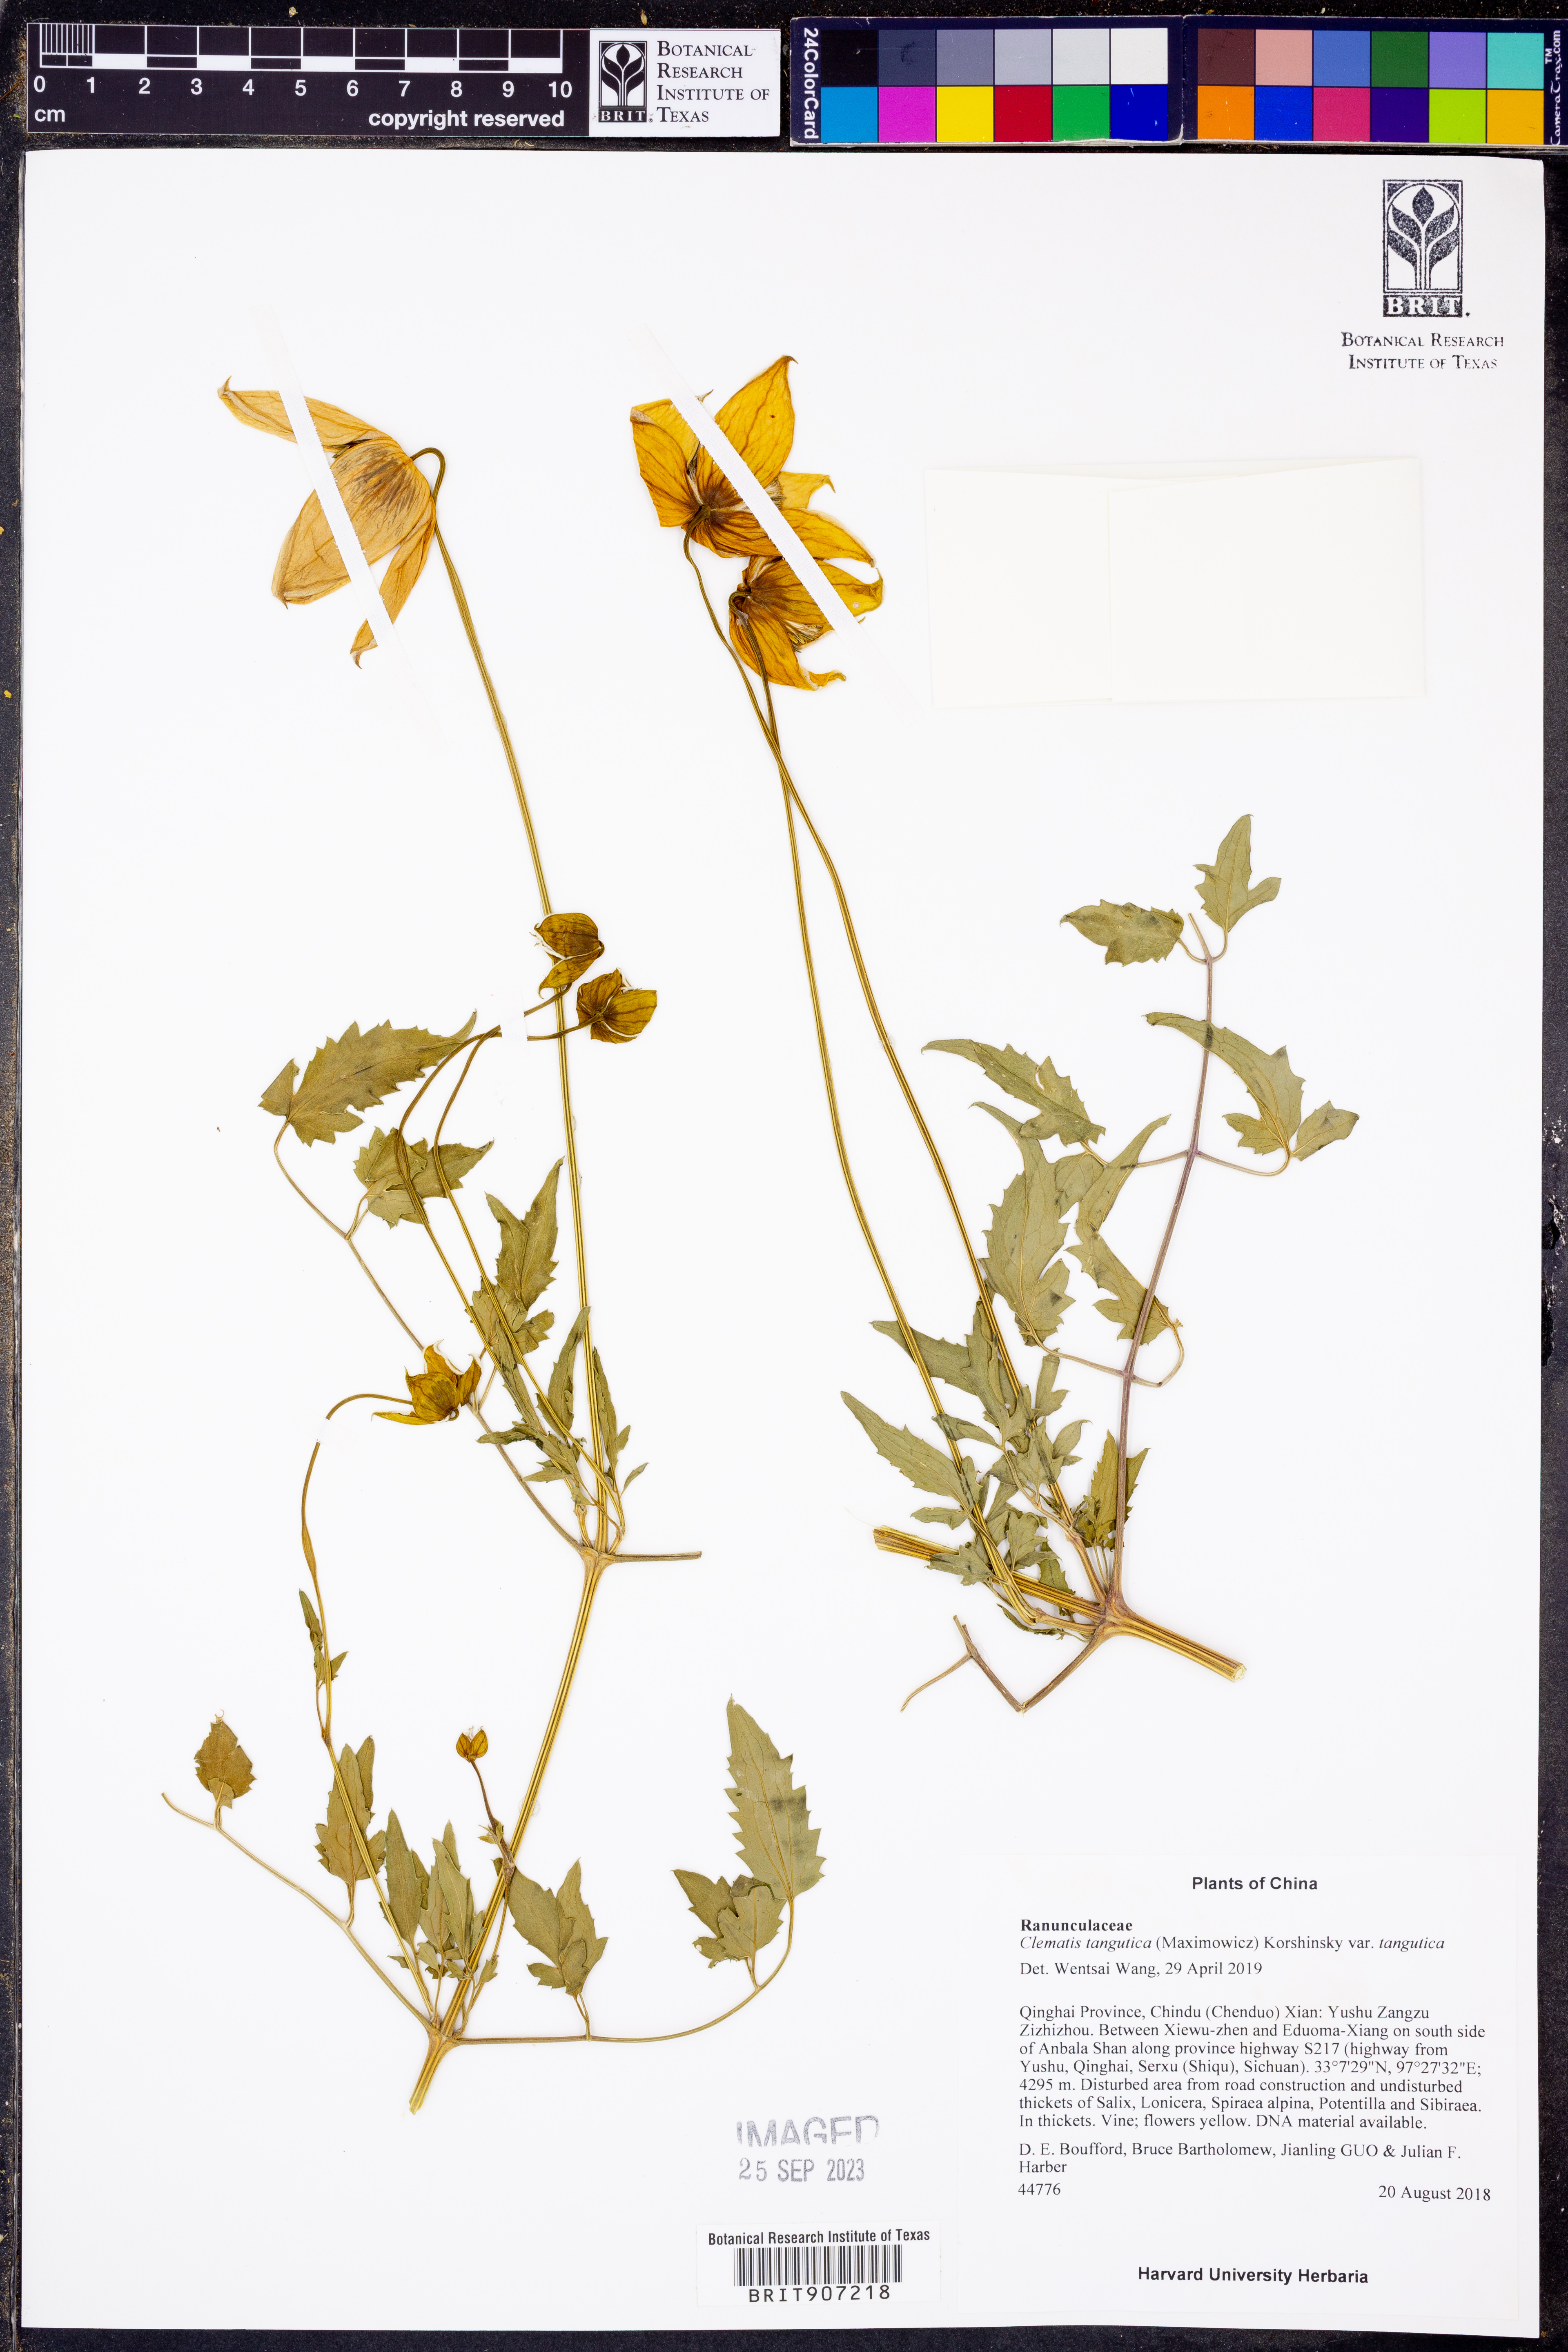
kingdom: Plantae
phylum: Tracheophyta
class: Magnoliopsida
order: Ranunculales
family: Ranunculaceae
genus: Clematis
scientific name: Clematis tangutica
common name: Orange-peel clematis
